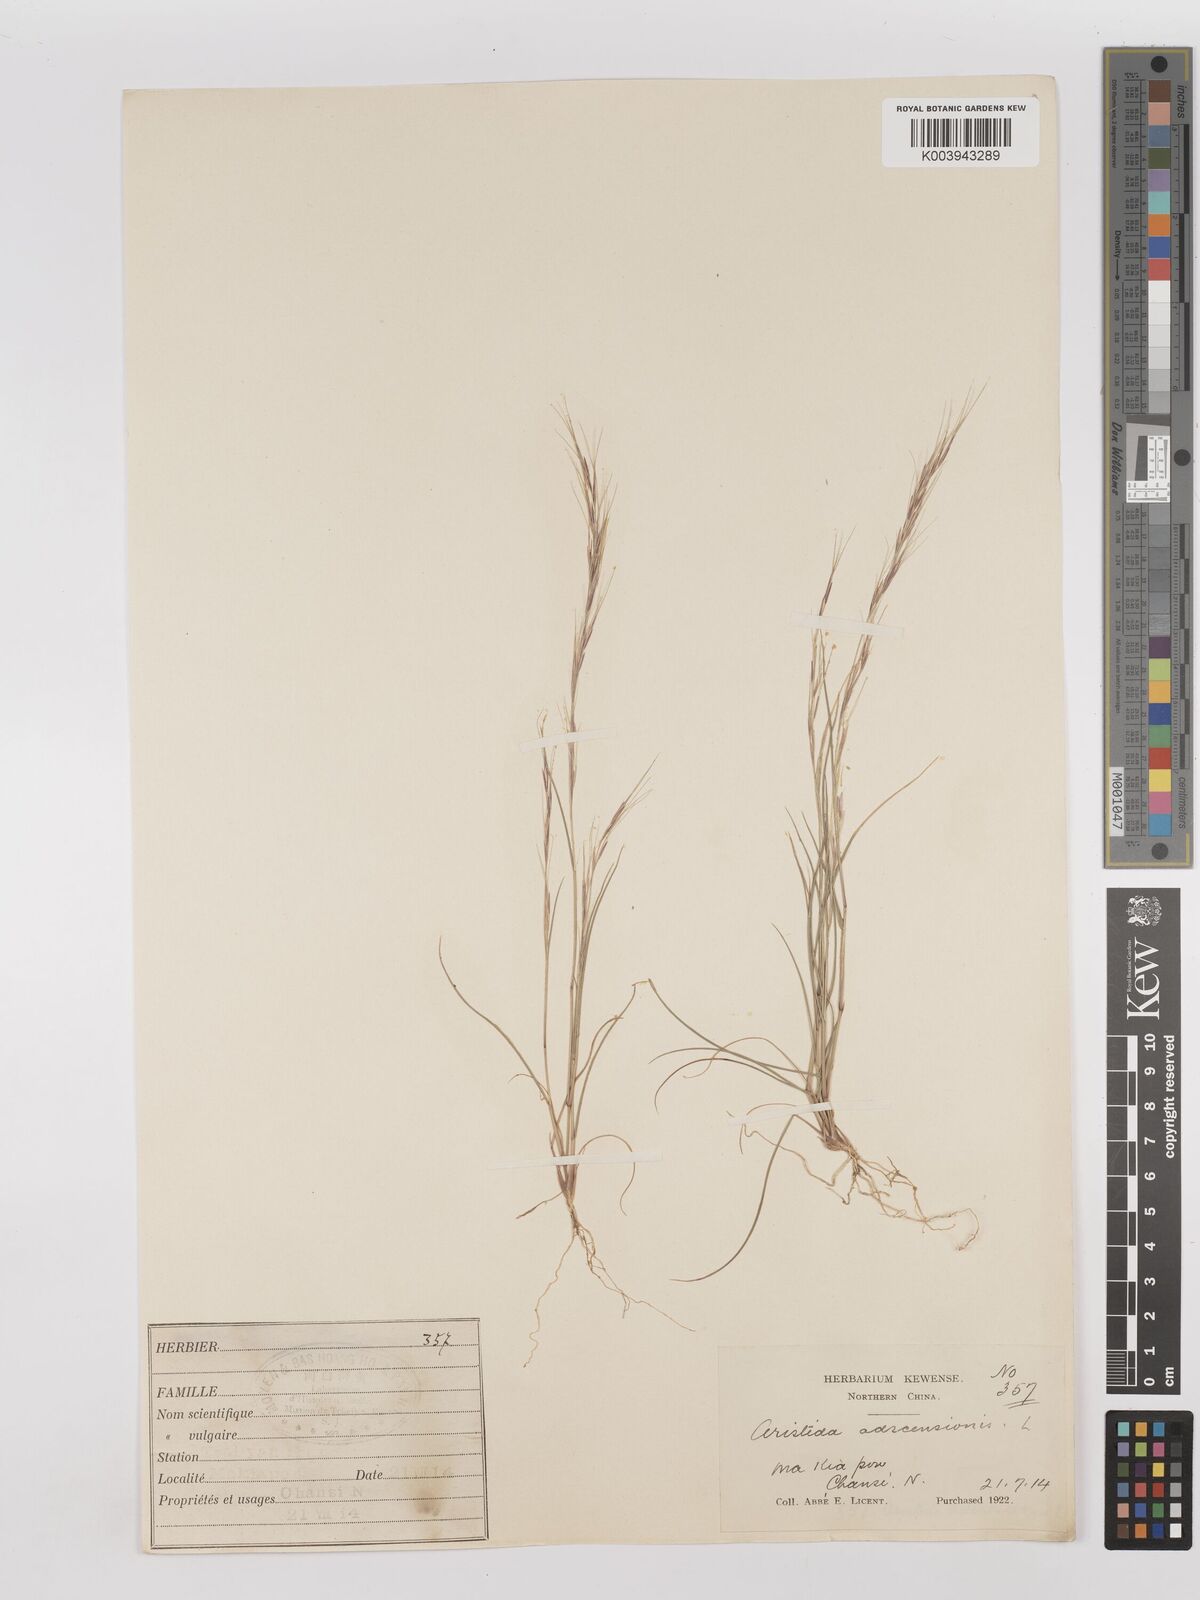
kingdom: Plantae
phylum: Tracheophyta
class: Liliopsida
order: Poales
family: Poaceae
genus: Aristida
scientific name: Aristida adscensionis
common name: Sixweeks threeawn
